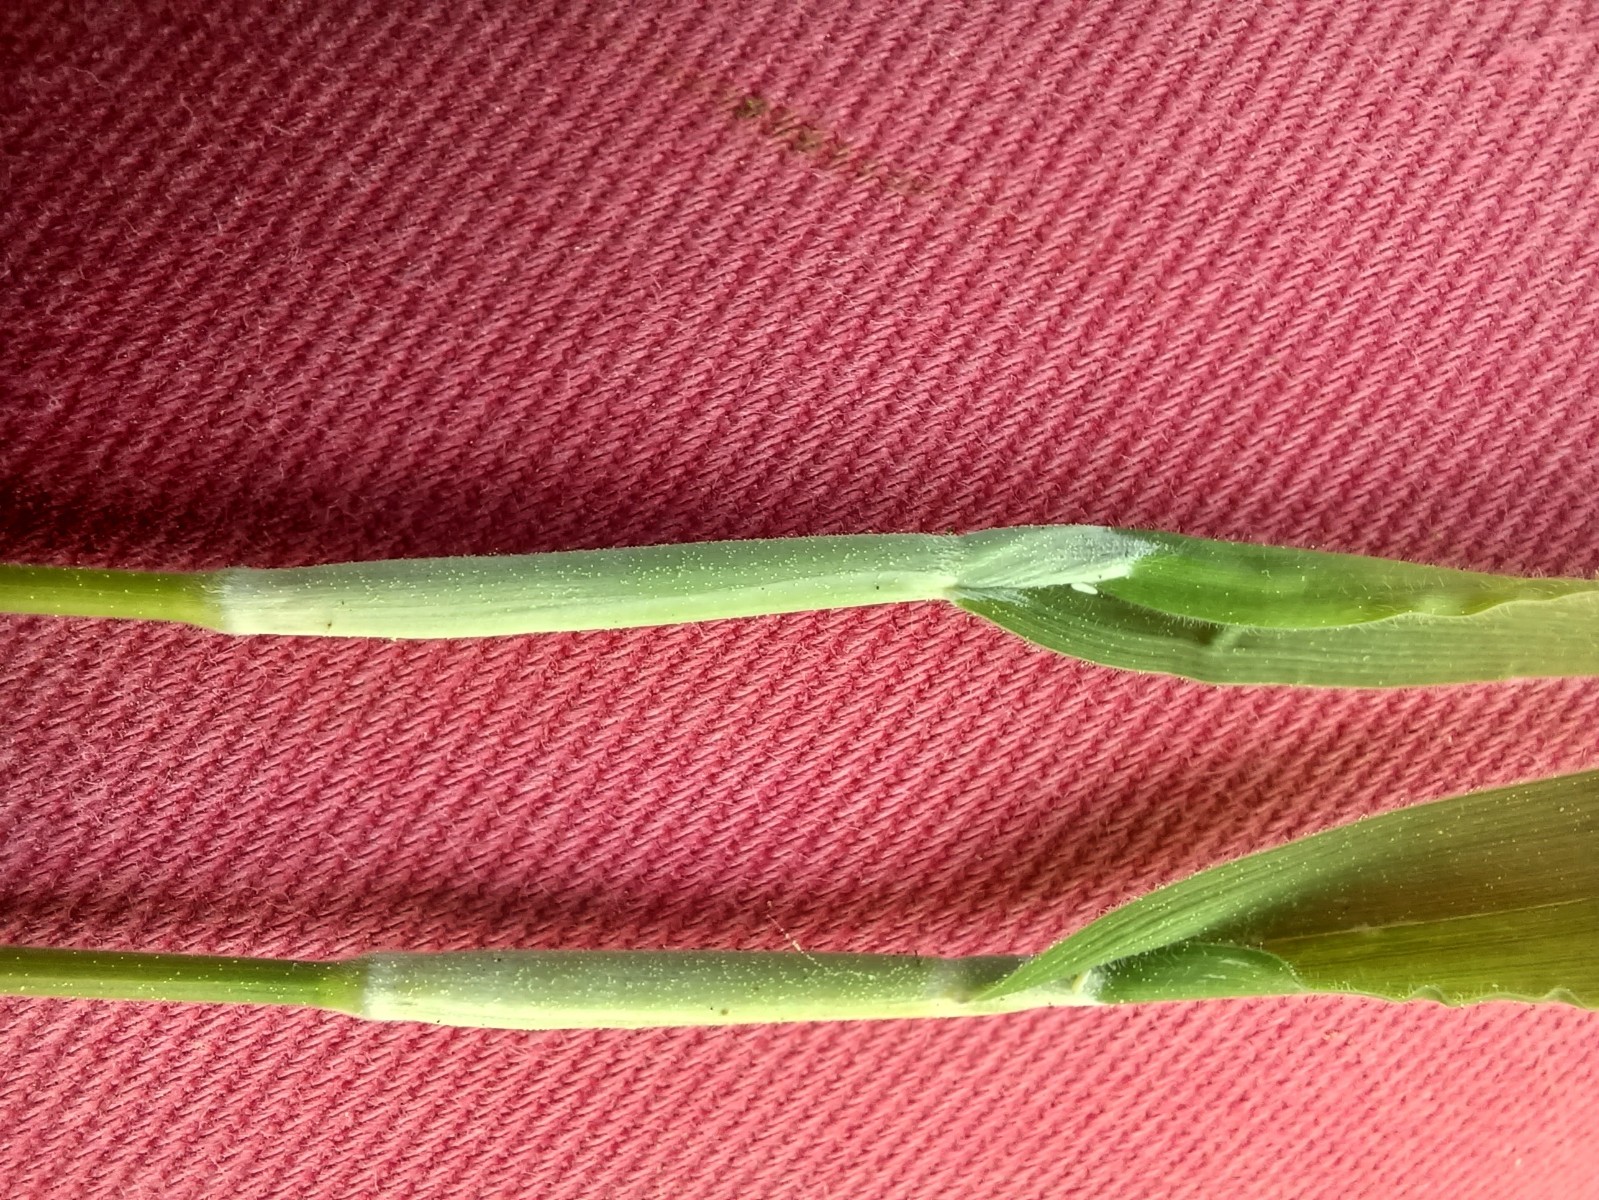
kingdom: Fungi
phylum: Ascomycota
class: Sordariomycetes
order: Hypocreales
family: Clavicipitaceae
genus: Epichloe
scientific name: Epichloe clarkii
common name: fløjlsgræs-kernerør
